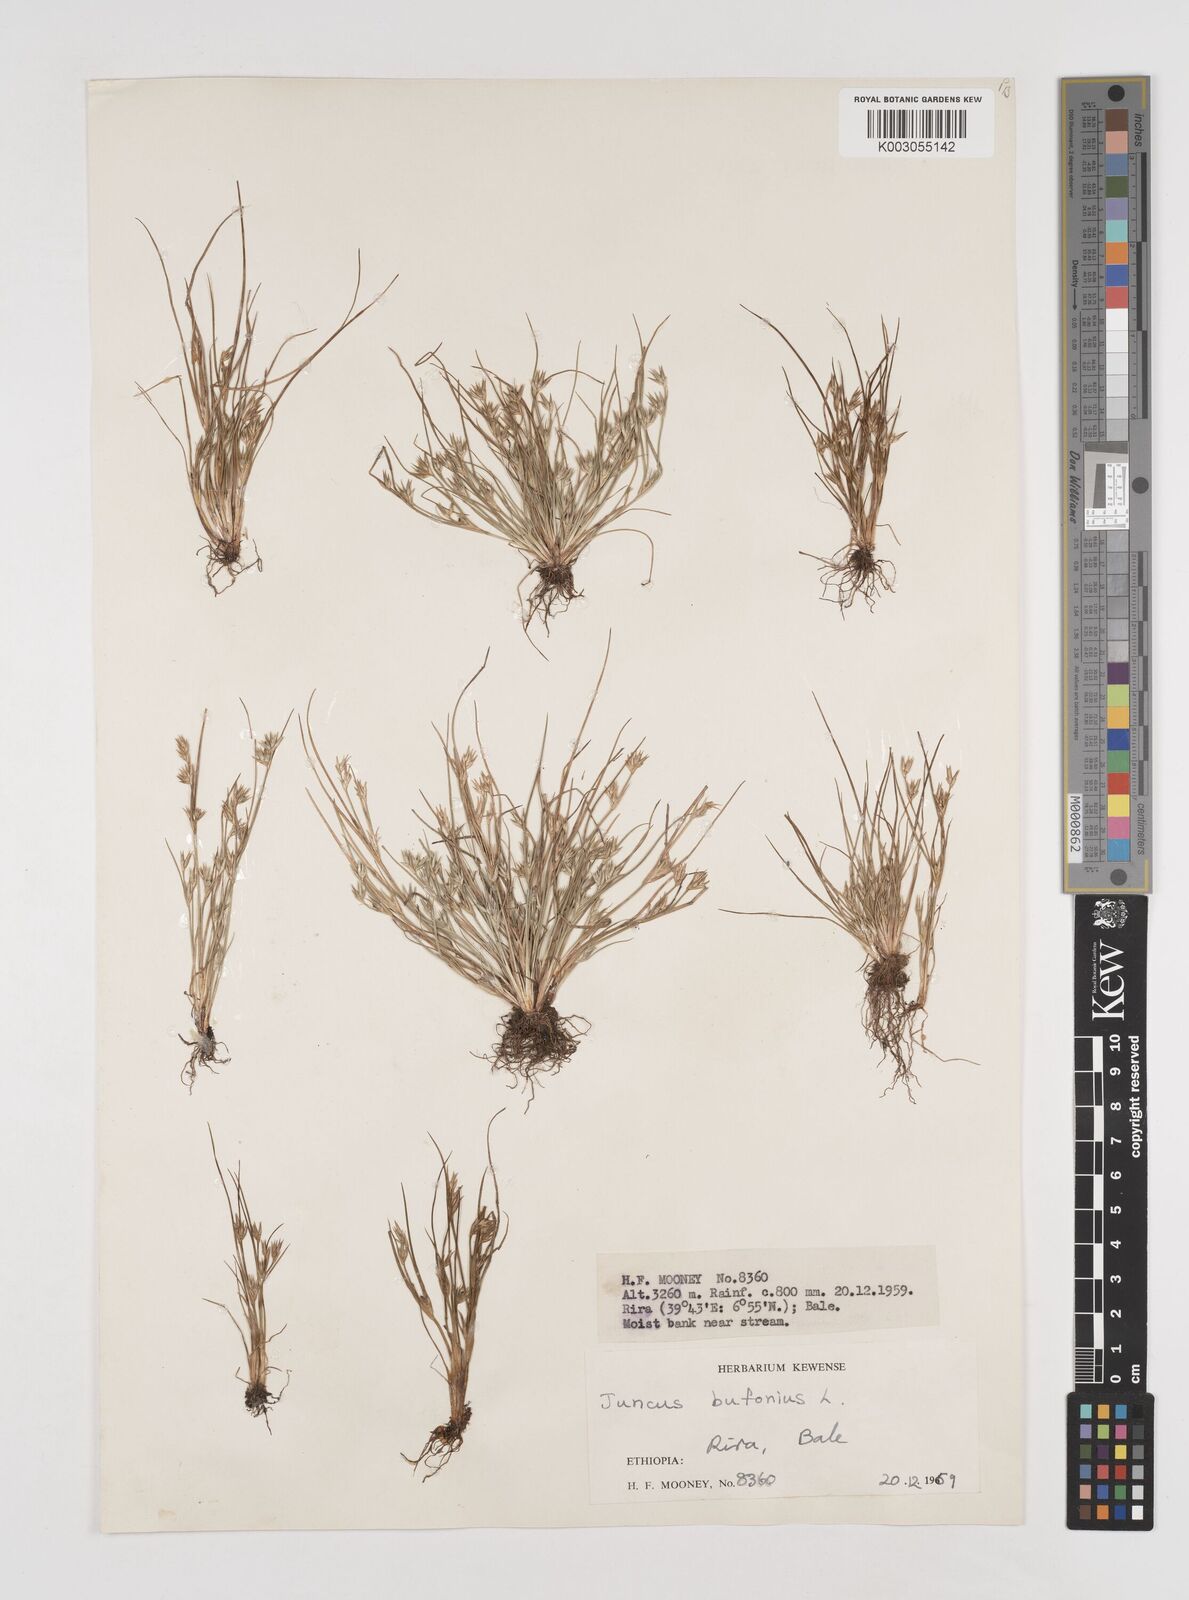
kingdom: Plantae
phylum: Tracheophyta
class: Liliopsida
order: Poales
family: Juncaceae
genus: Juncus
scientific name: Juncus bufonius
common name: Toad rush
